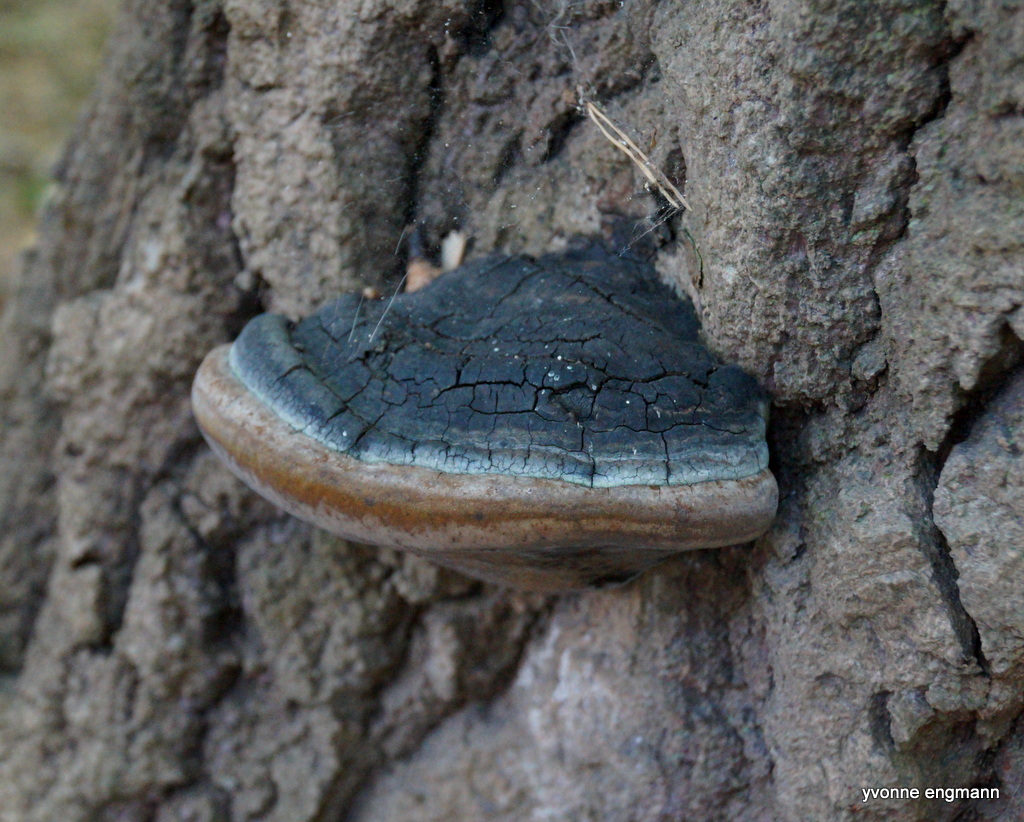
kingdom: Fungi
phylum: Basidiomycota
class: Agaricomycetes
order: Hymenochaetales
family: Hymenochaetaceae
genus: Phellinus
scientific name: Phellinus populicola
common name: poppel-ildporesvamp
